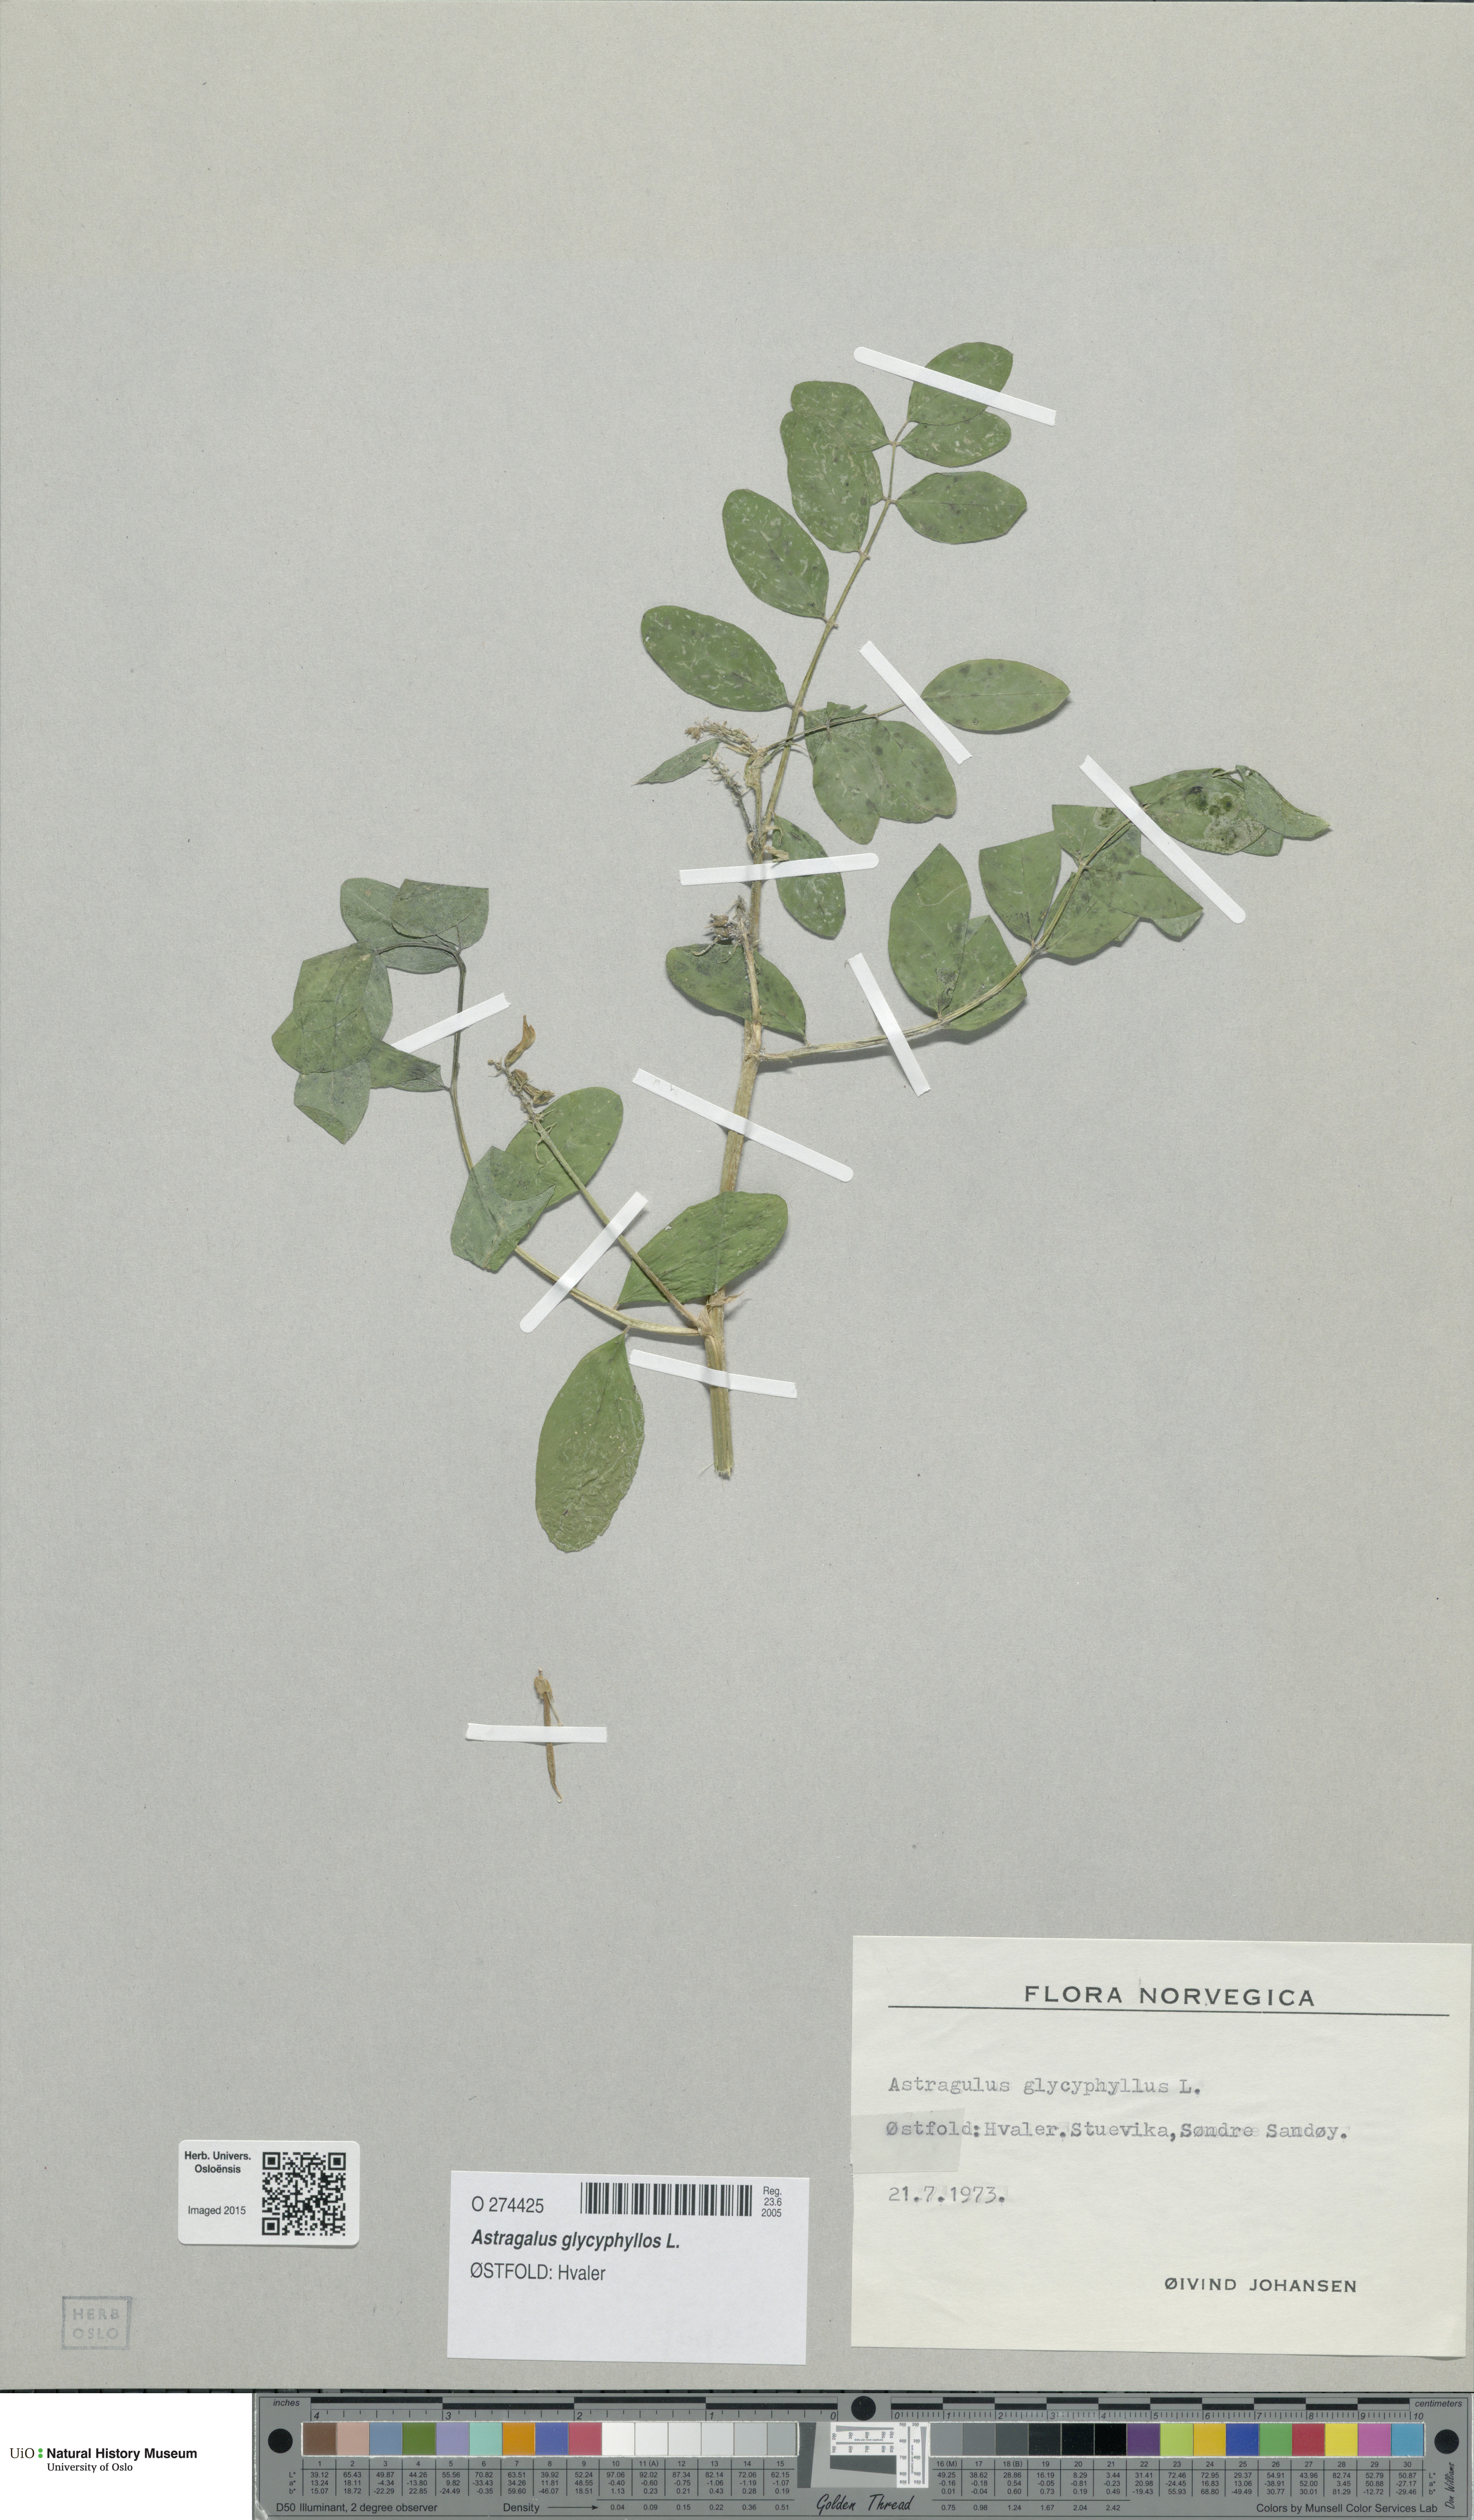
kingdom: Plantae
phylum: Tracheophyta
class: Magnoliopsida
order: Fabales
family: Fabaceae
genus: Astragalus
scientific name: Astragalus glycyphyllos
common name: Wild liquorice
